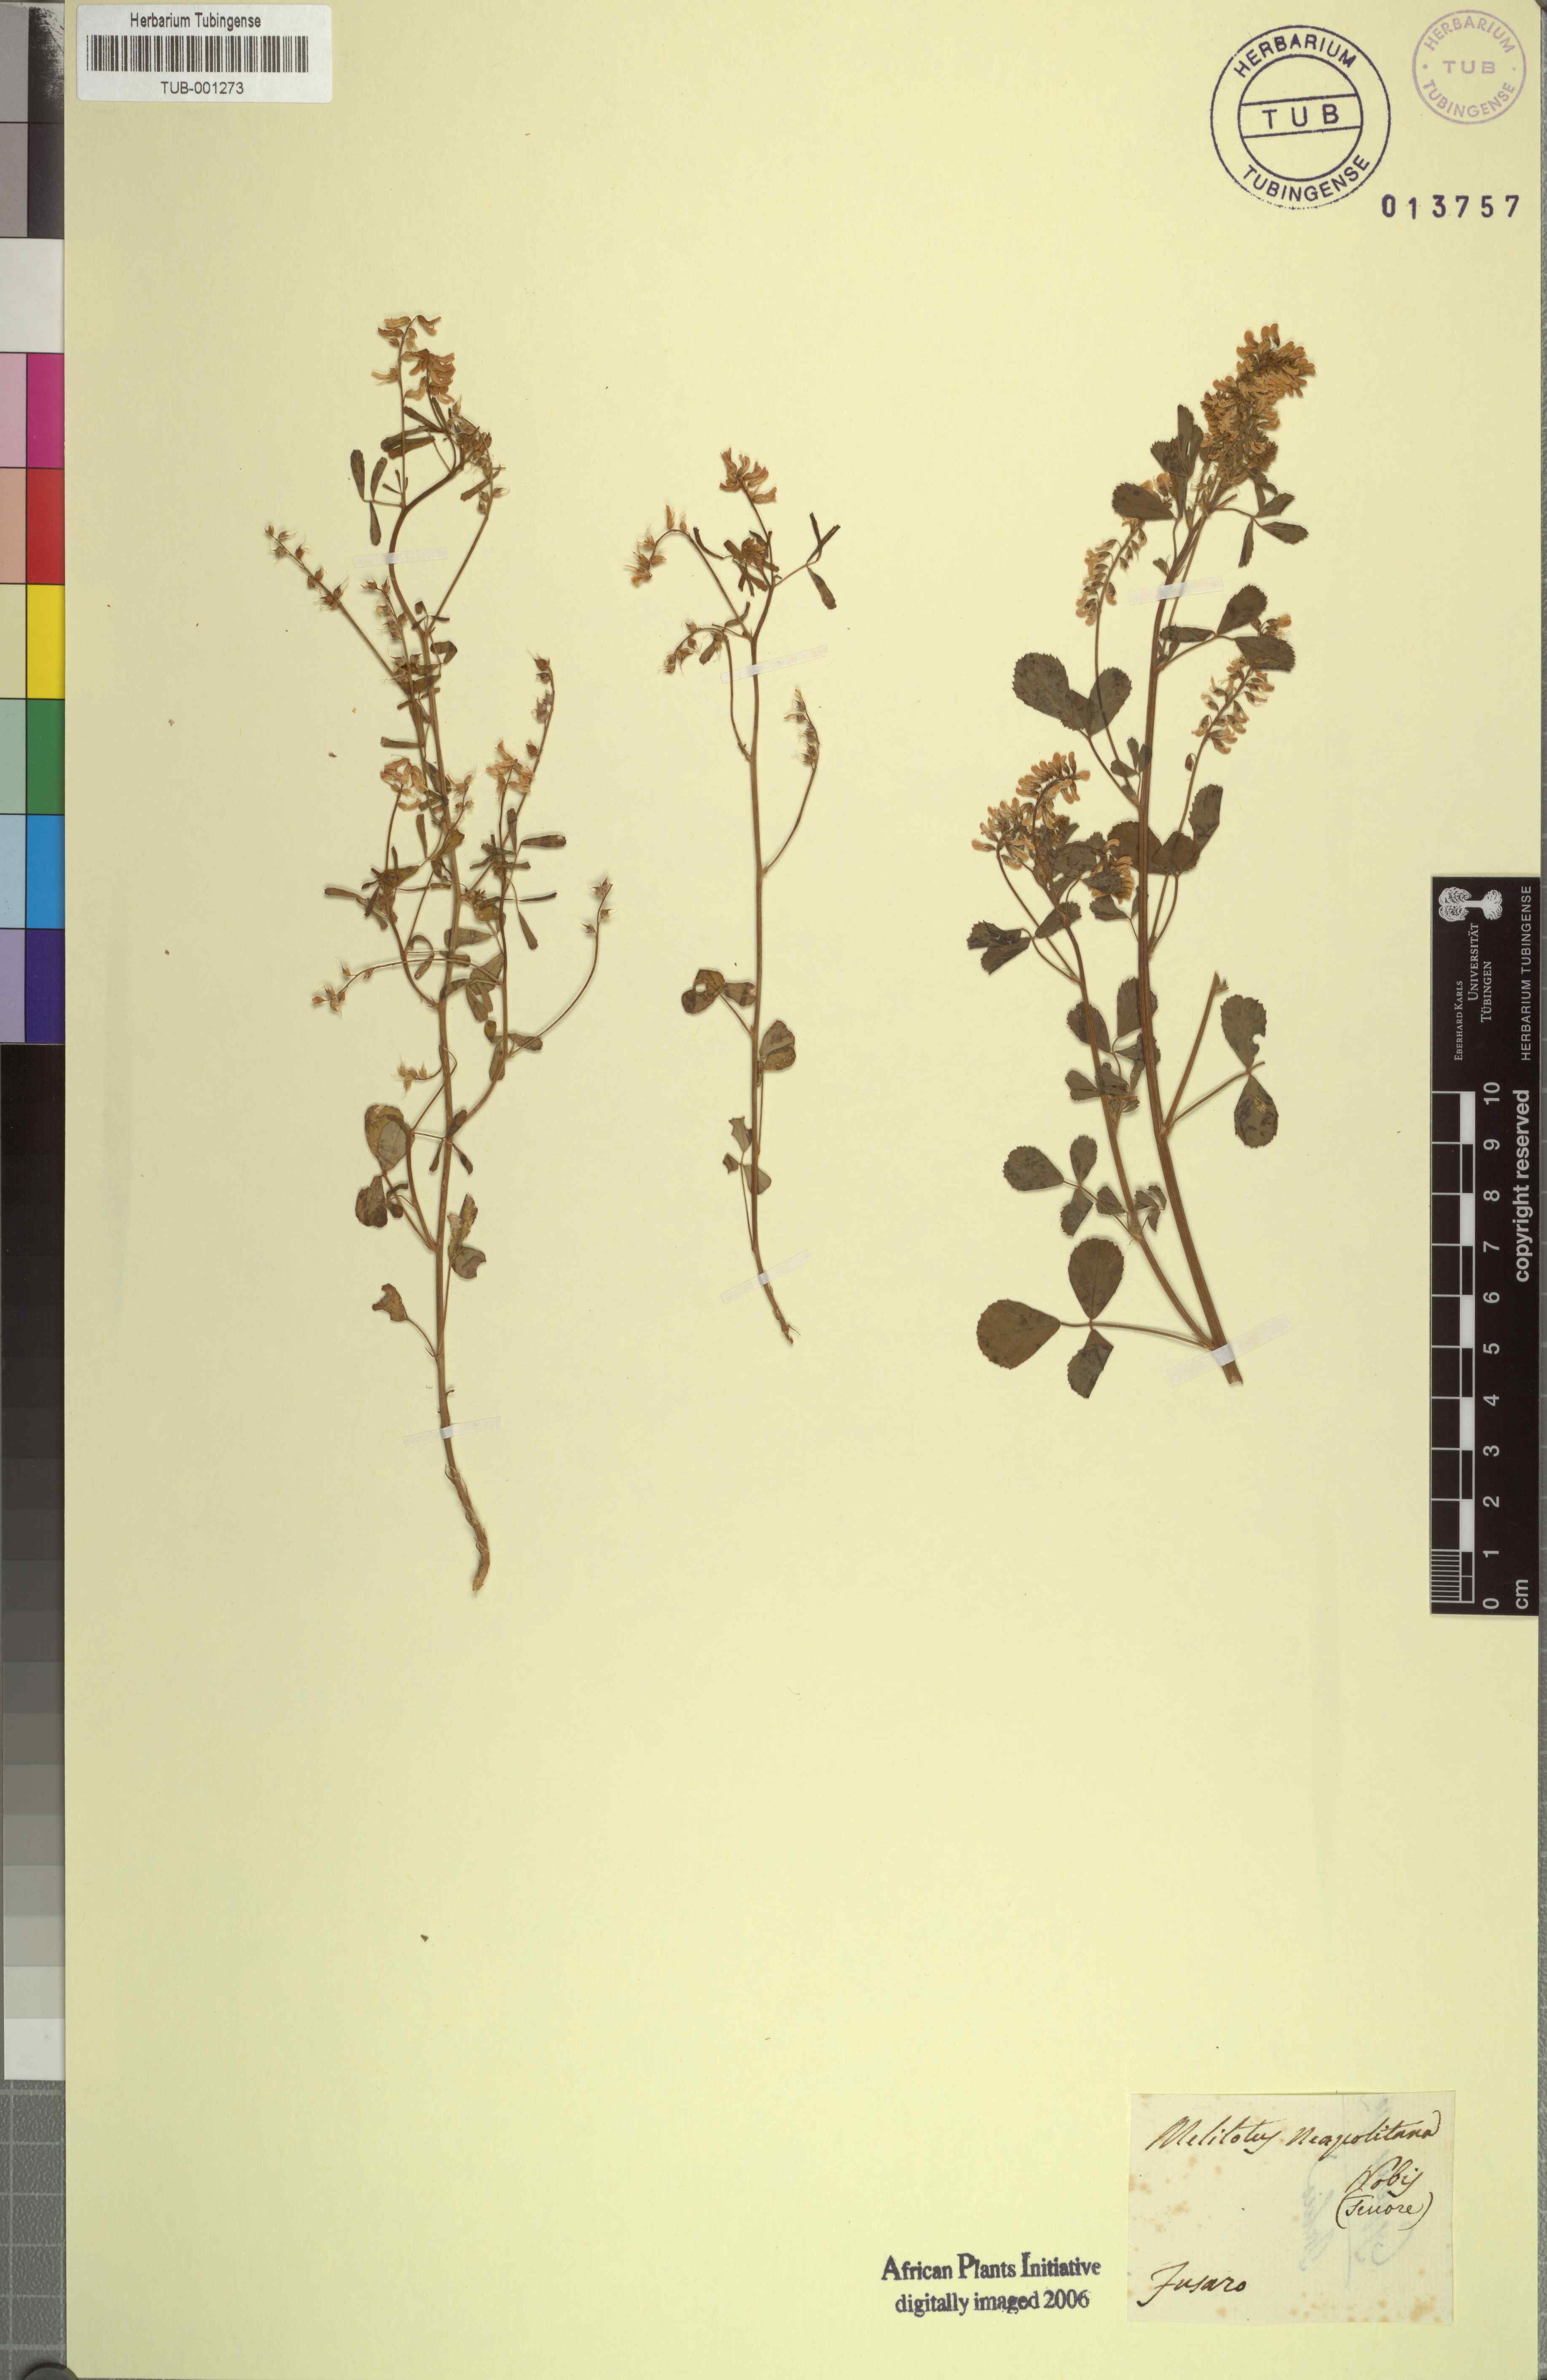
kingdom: Plantae
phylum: Tracheophyta
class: Magnoliopsida
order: Fabales
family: Fabaceae
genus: Melilotus
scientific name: Melilotus neapolitanus
